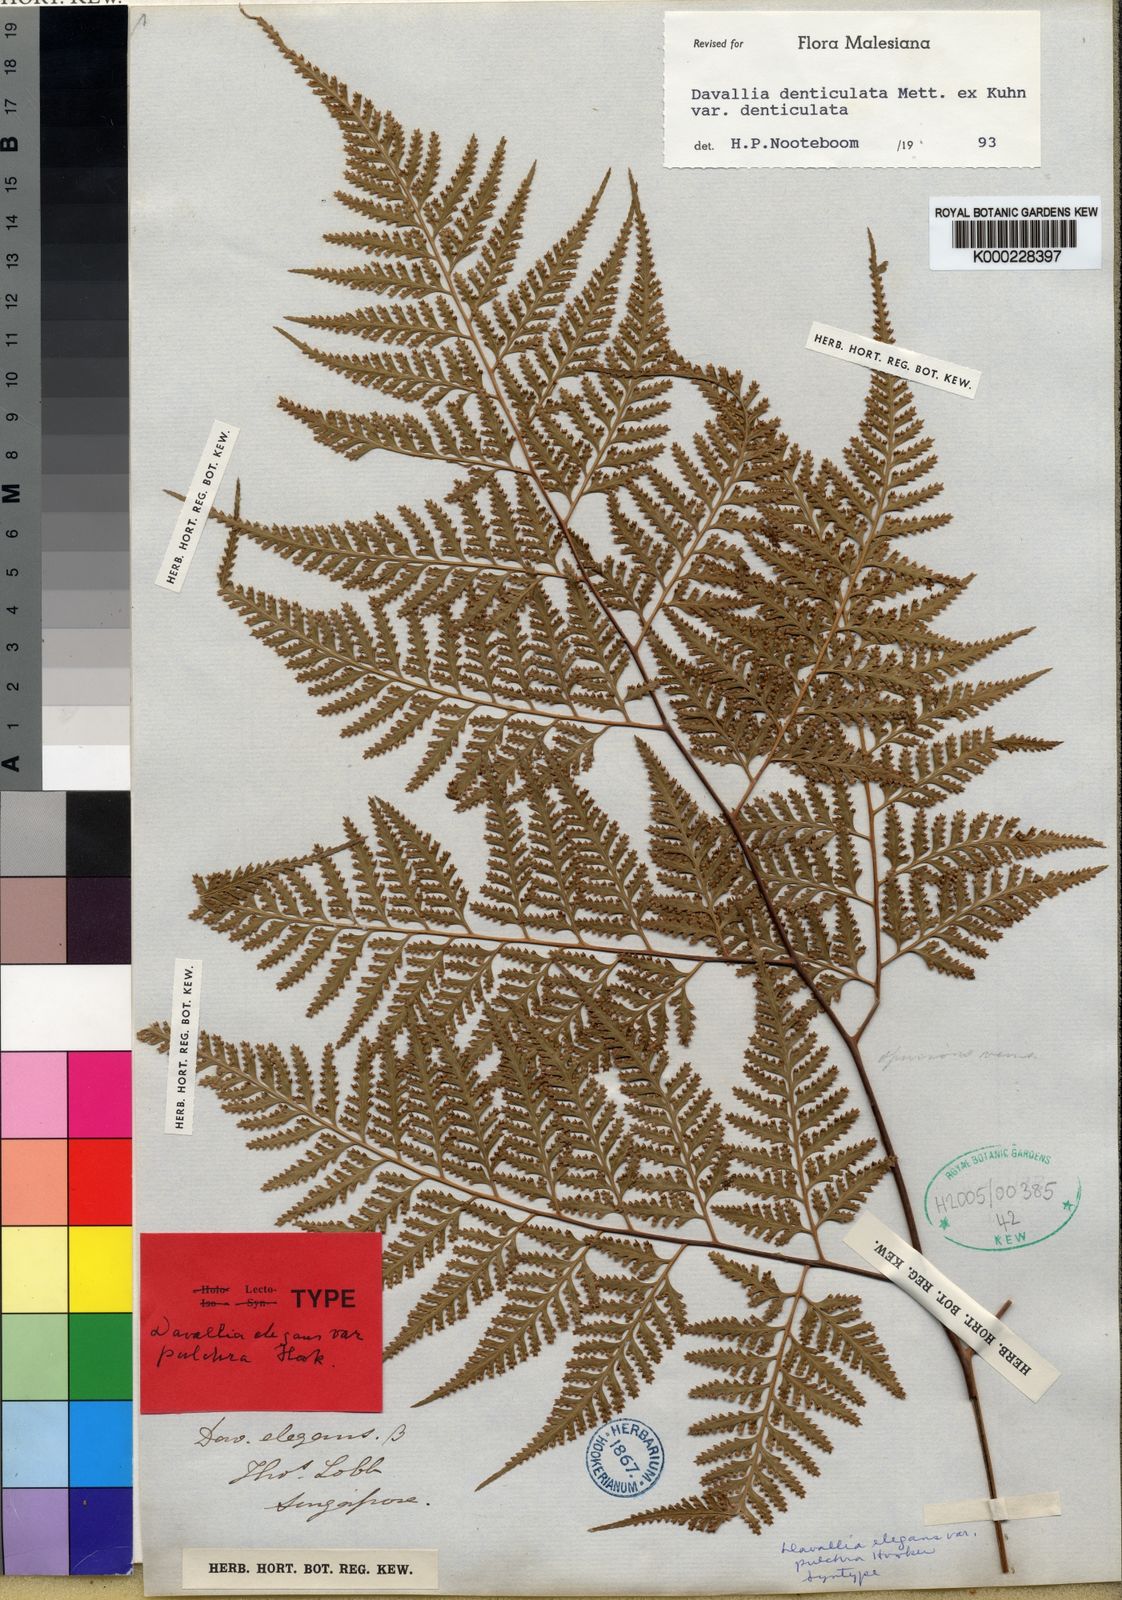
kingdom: Plantae
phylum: Tracheophyta
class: Polypodiopsida
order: Polypodiales
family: Davalliaceae
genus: Davallia
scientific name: Davallia denticulata
